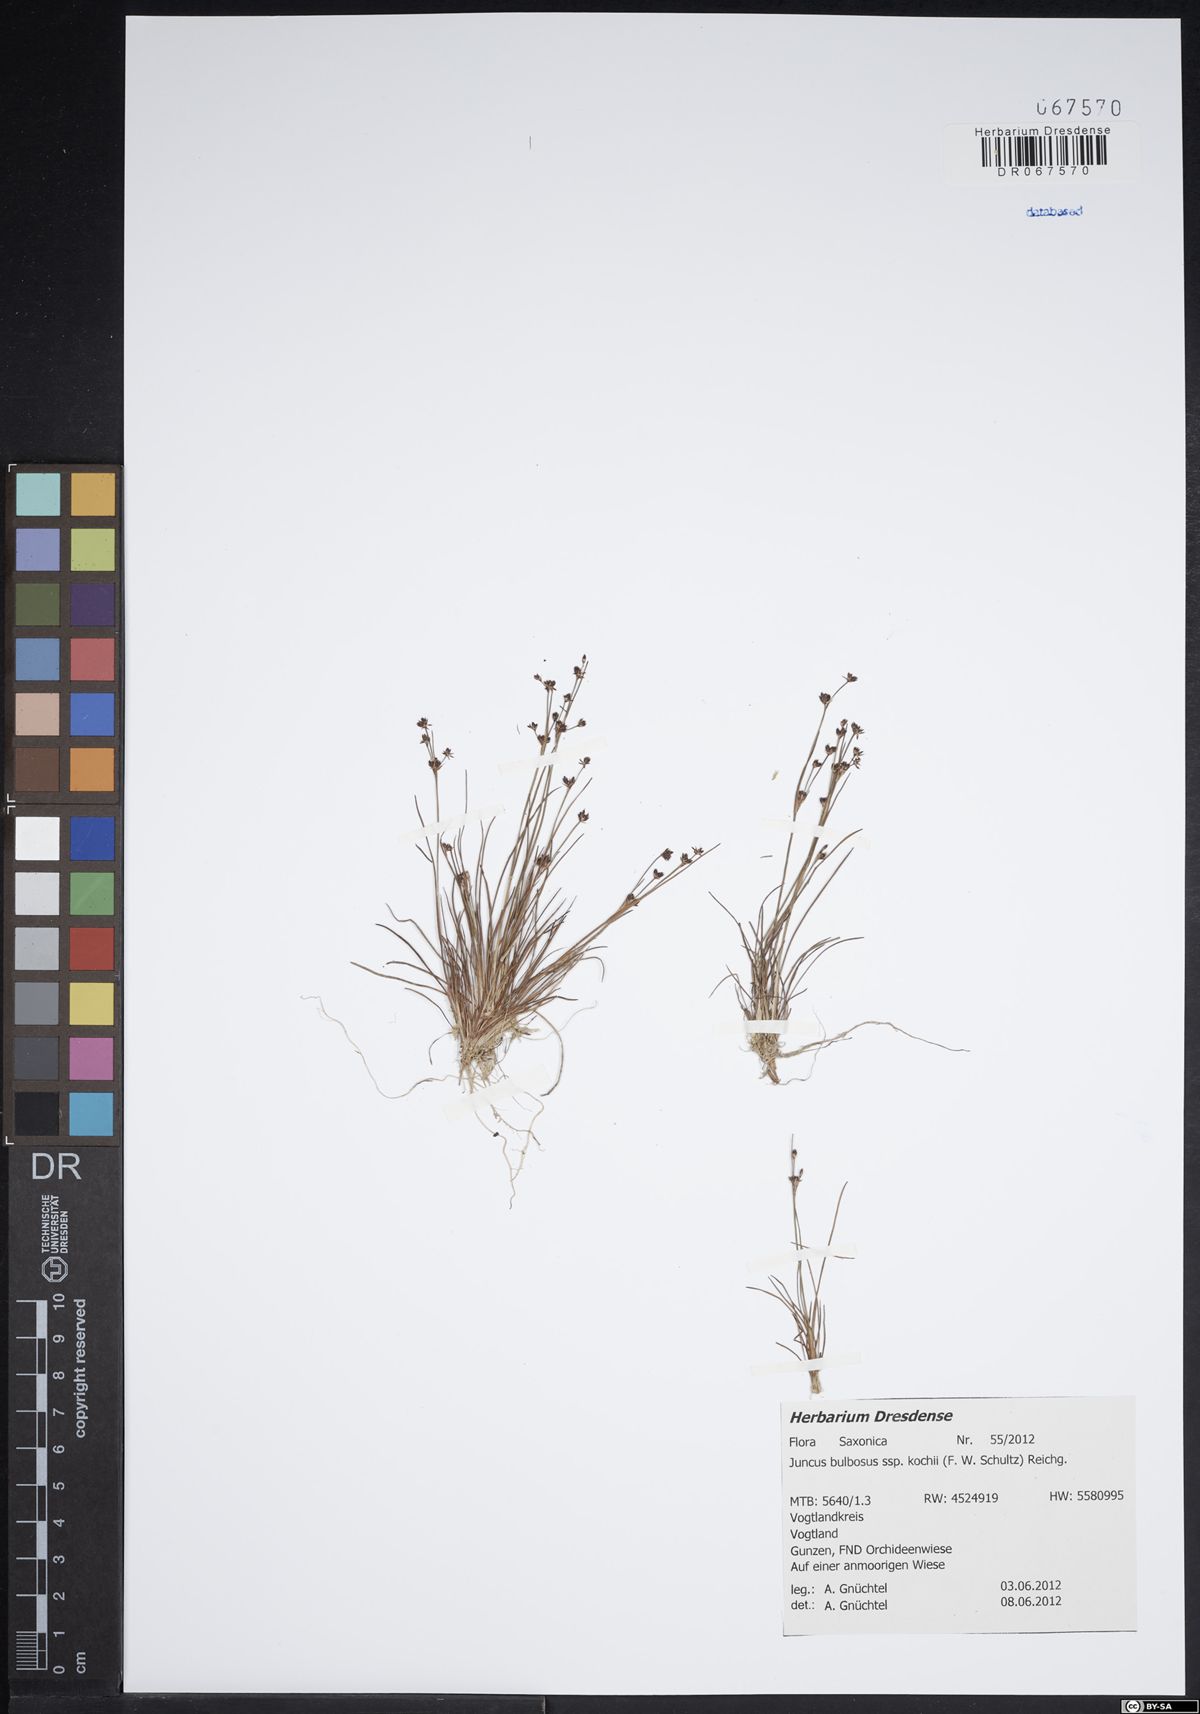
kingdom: Plantae
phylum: Tracheophyta
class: Liliopsida
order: Poales
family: Juncaceae
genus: Juncus
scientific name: Juncus bulbosus
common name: Bulbous rush
